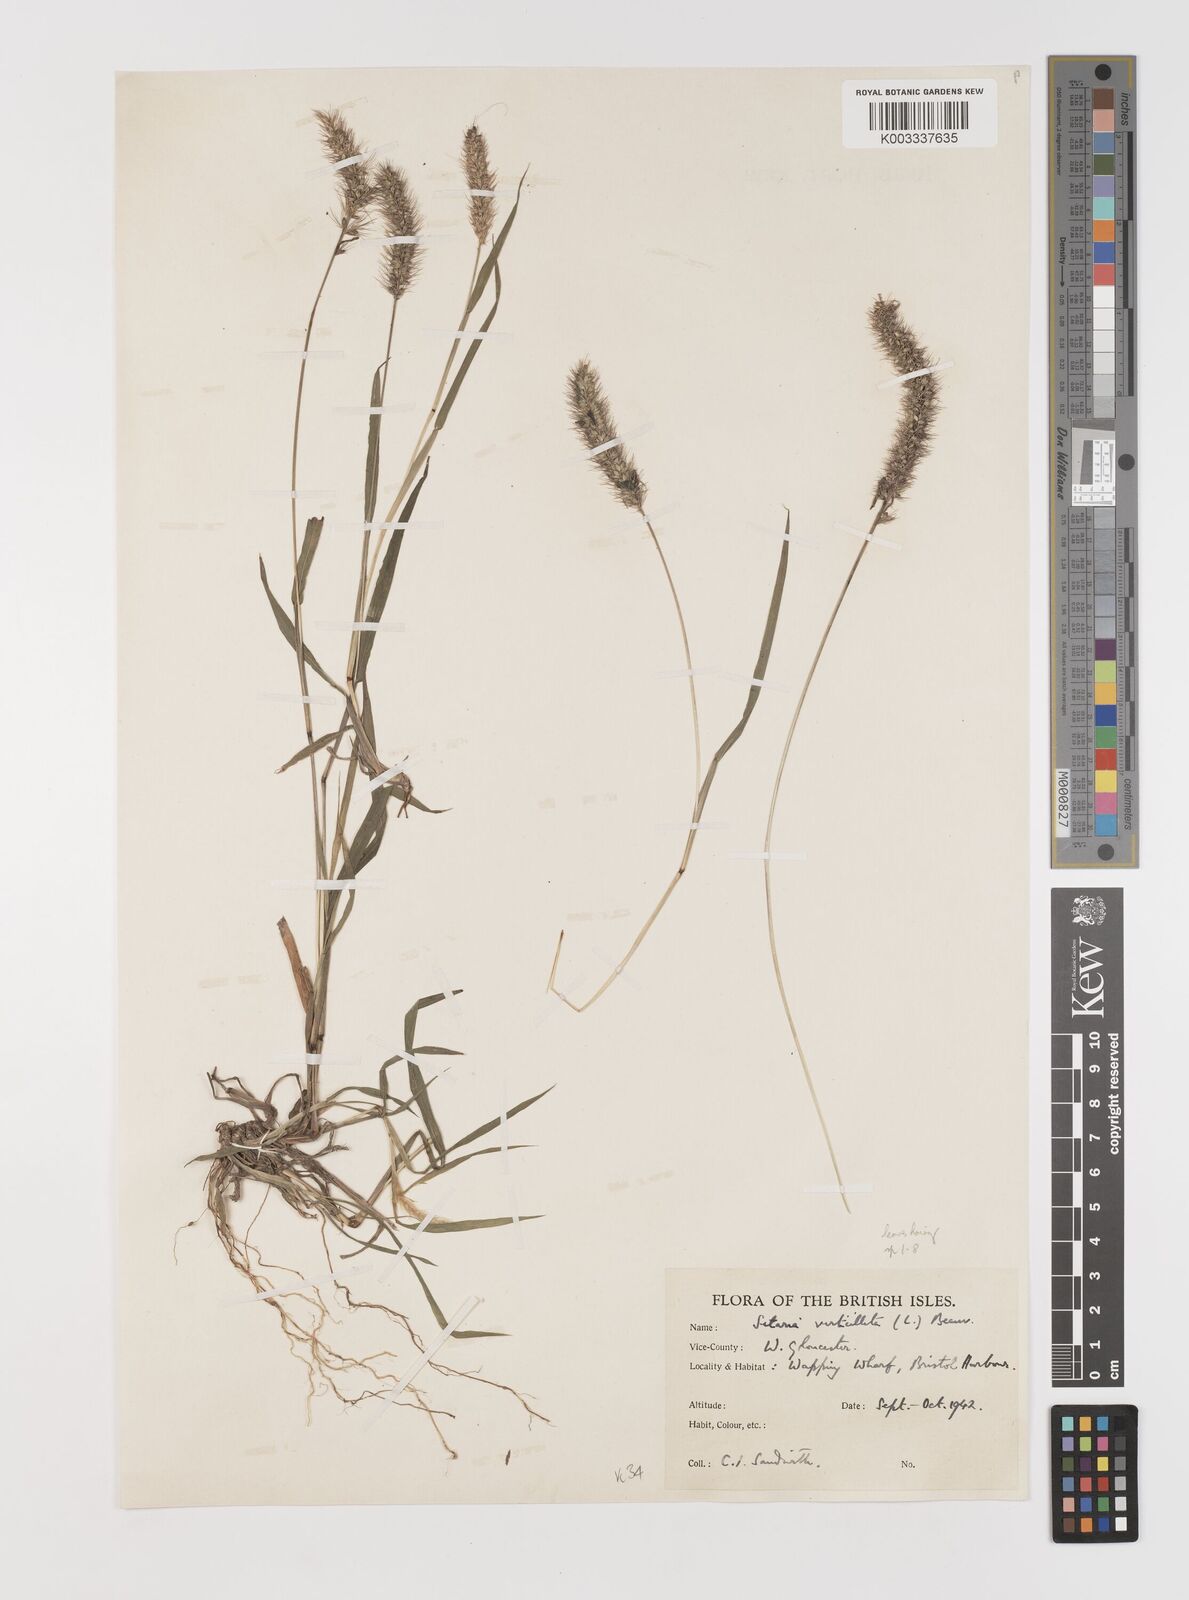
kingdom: Plantae
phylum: Tracheophyta
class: Liliopsida
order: Poales
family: Poaceae
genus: Setaria
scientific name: Setaria verticillata
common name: Hooked bristlegrass
